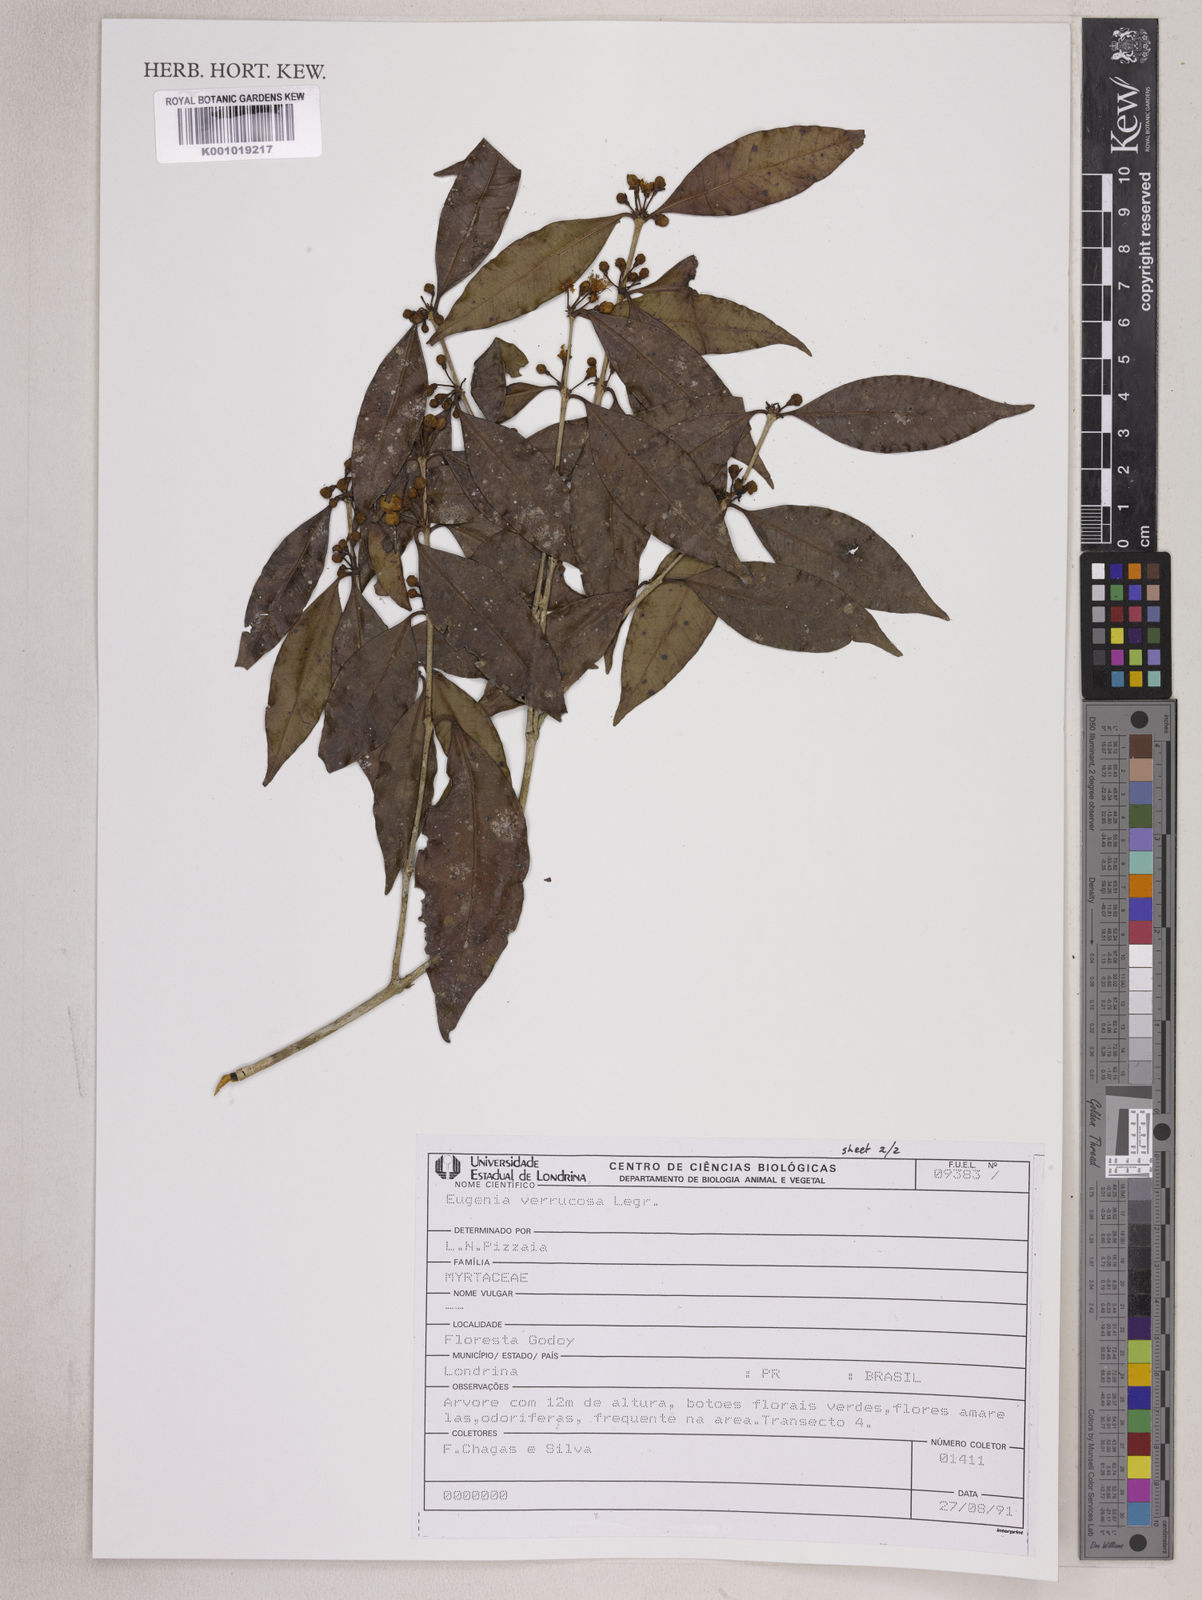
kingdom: Plantae
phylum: Tracheophyta
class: Magnoliopsida
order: Myrtales
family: Myrtaceae
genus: Eugenia
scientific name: Eugenia neoverrucosa
